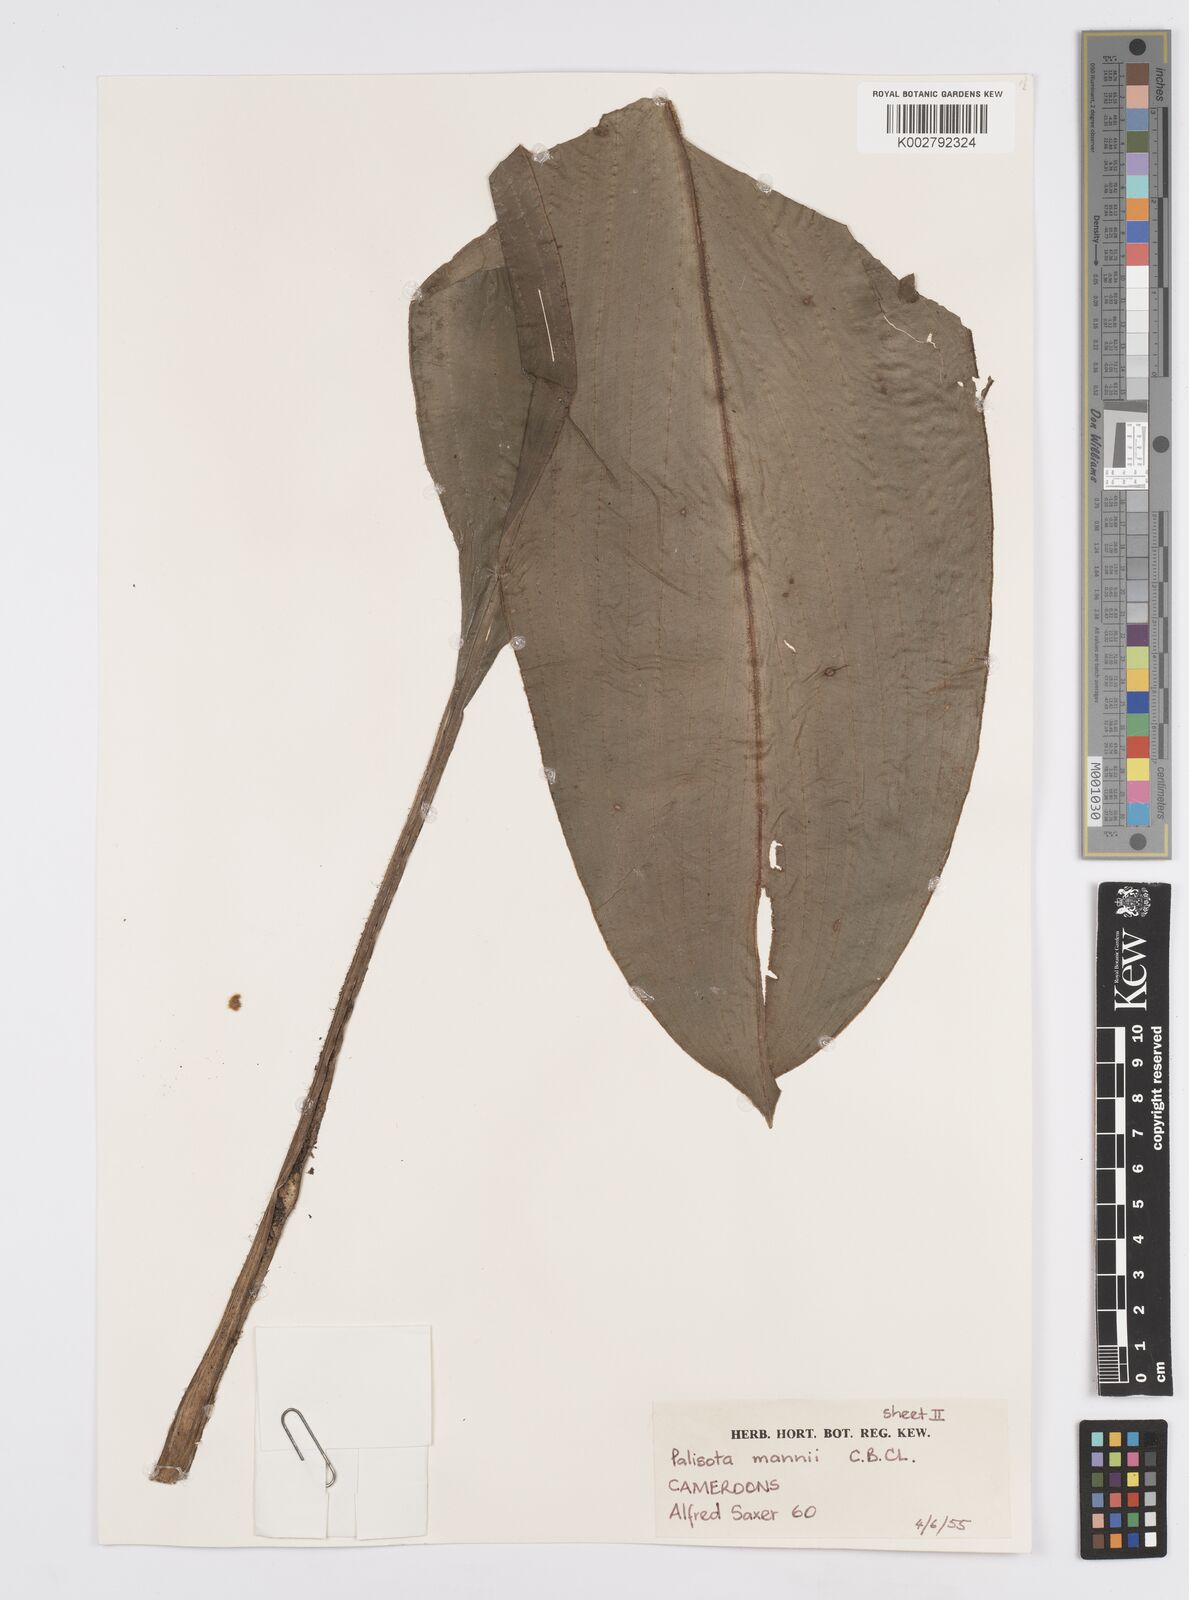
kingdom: Plantae
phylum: Tracheophyta
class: Liliopsida
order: Commelinales
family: Commelinaceae
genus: Palisota
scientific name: Palisota mannii
